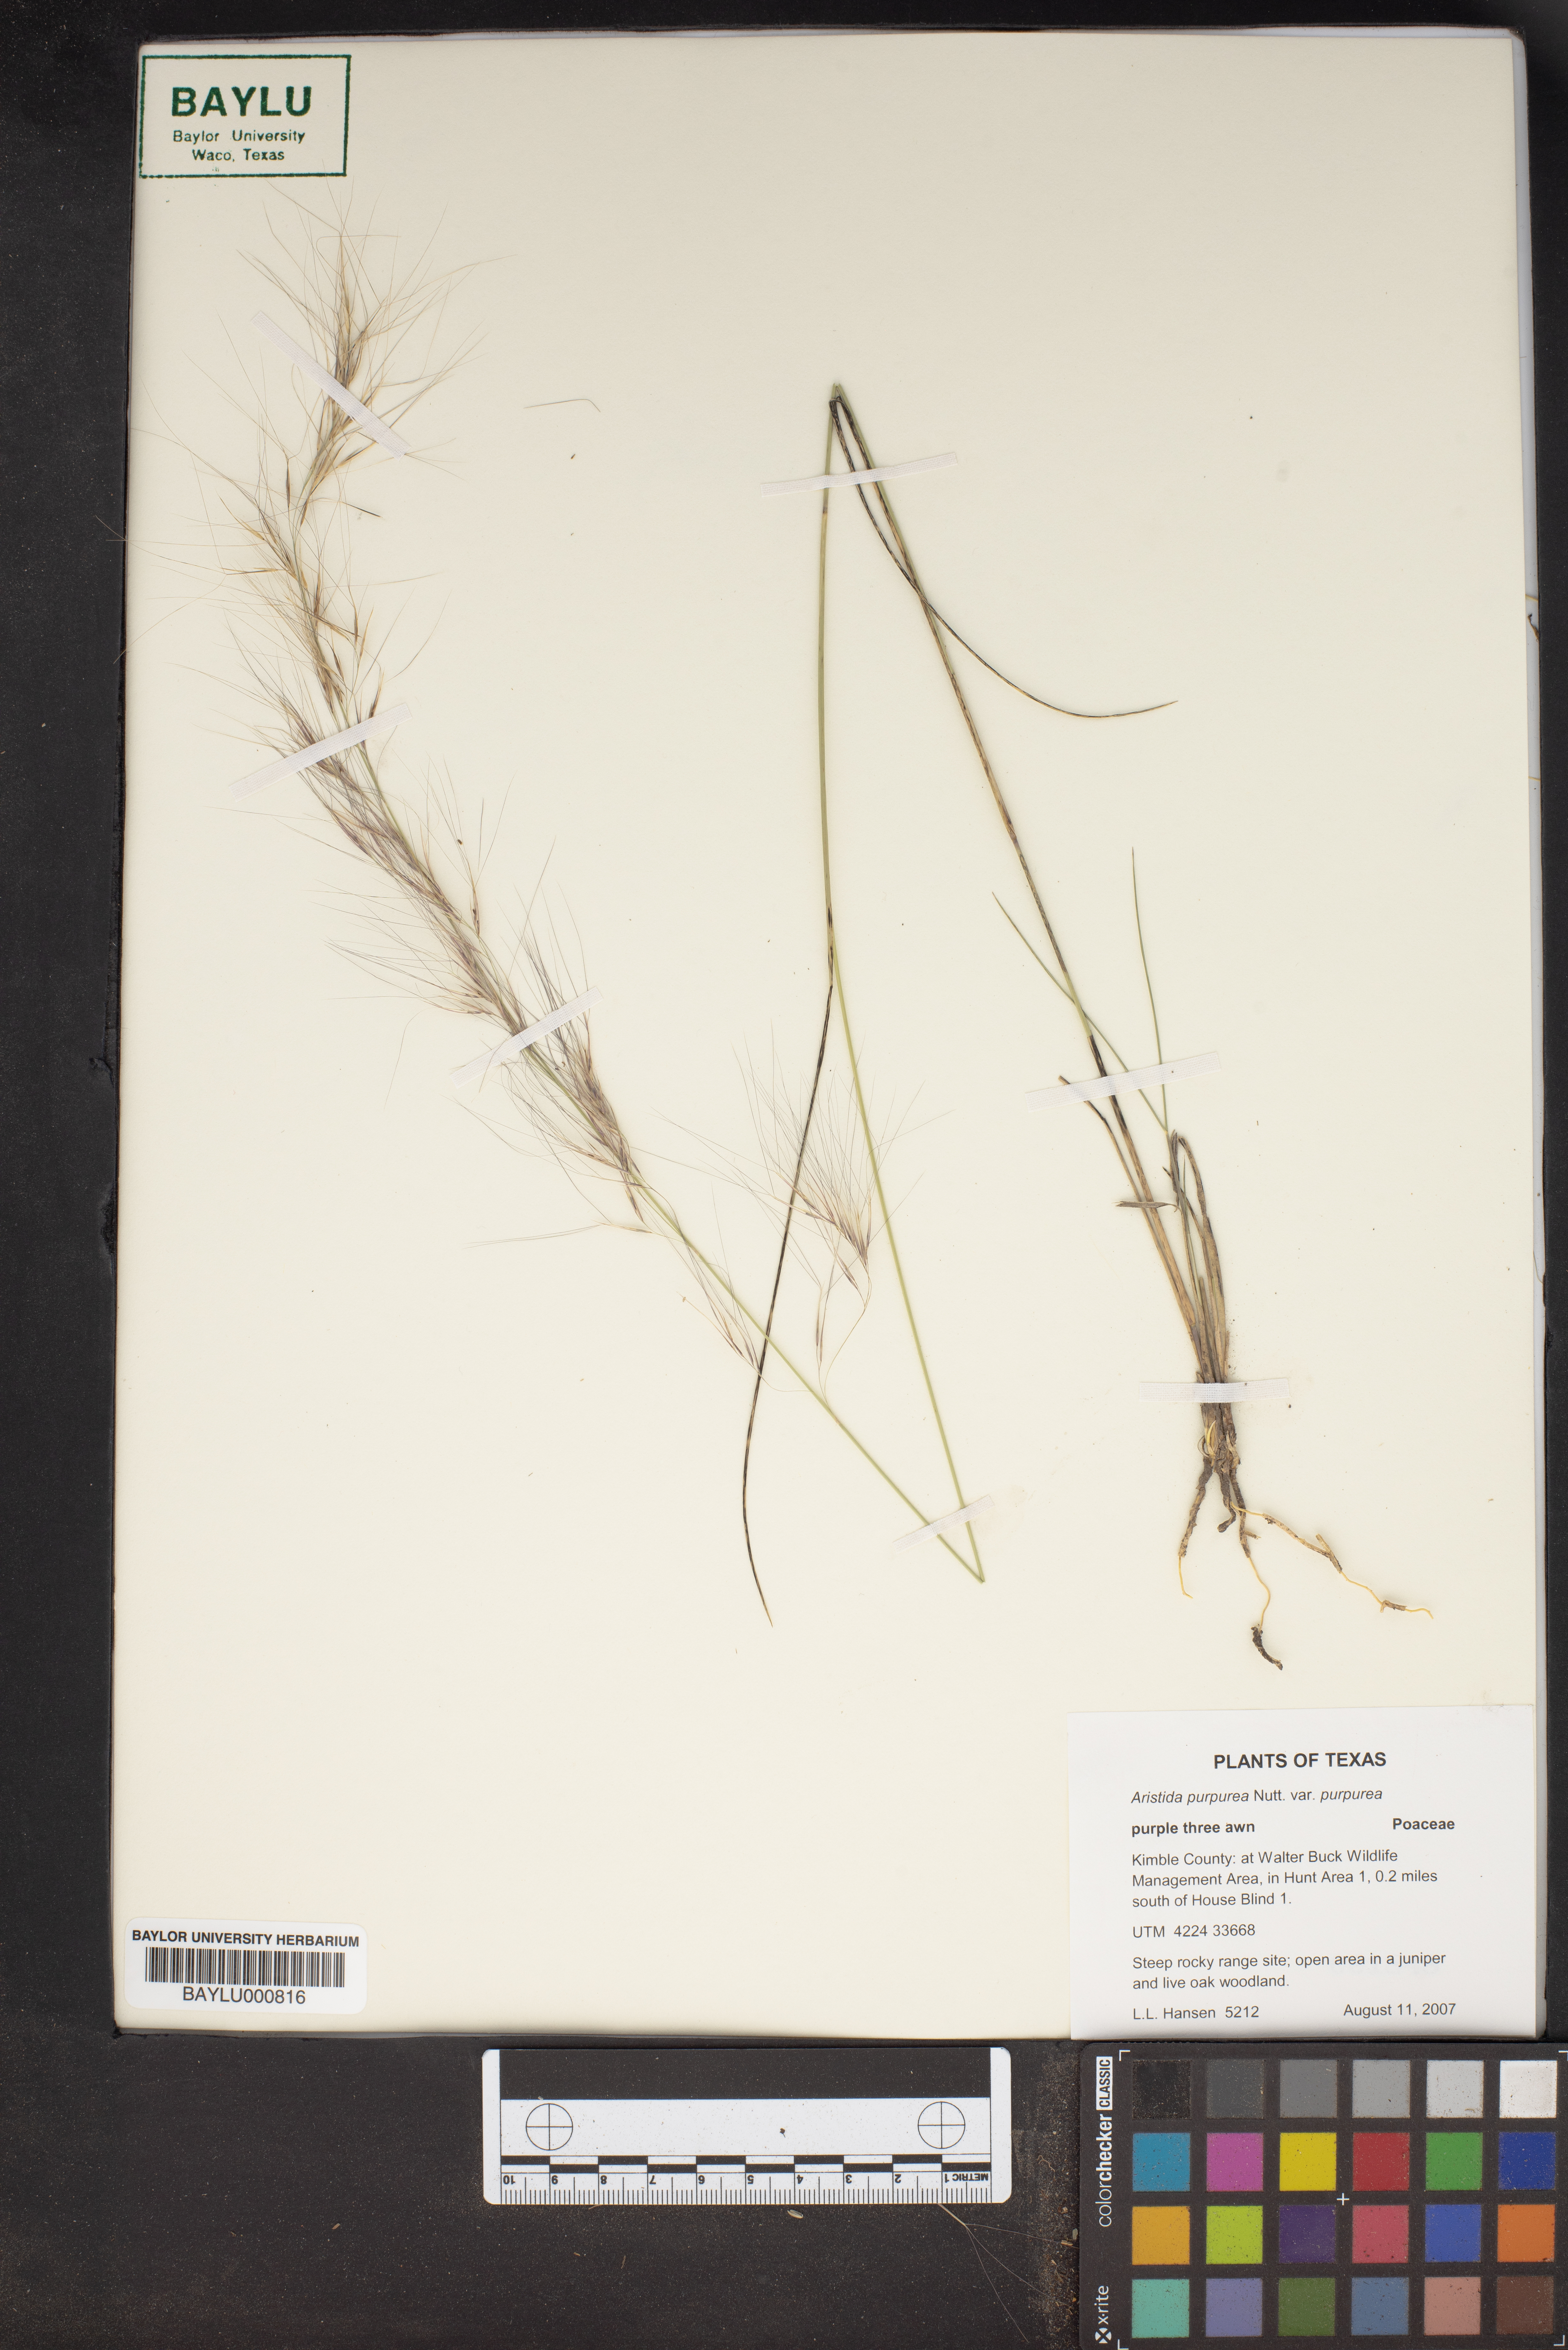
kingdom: Plantae
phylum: Tracheophyta
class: Liliopsida
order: Poales
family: Poaceae
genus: Aristida
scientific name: Aristida purpurea
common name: Purple threeawn
